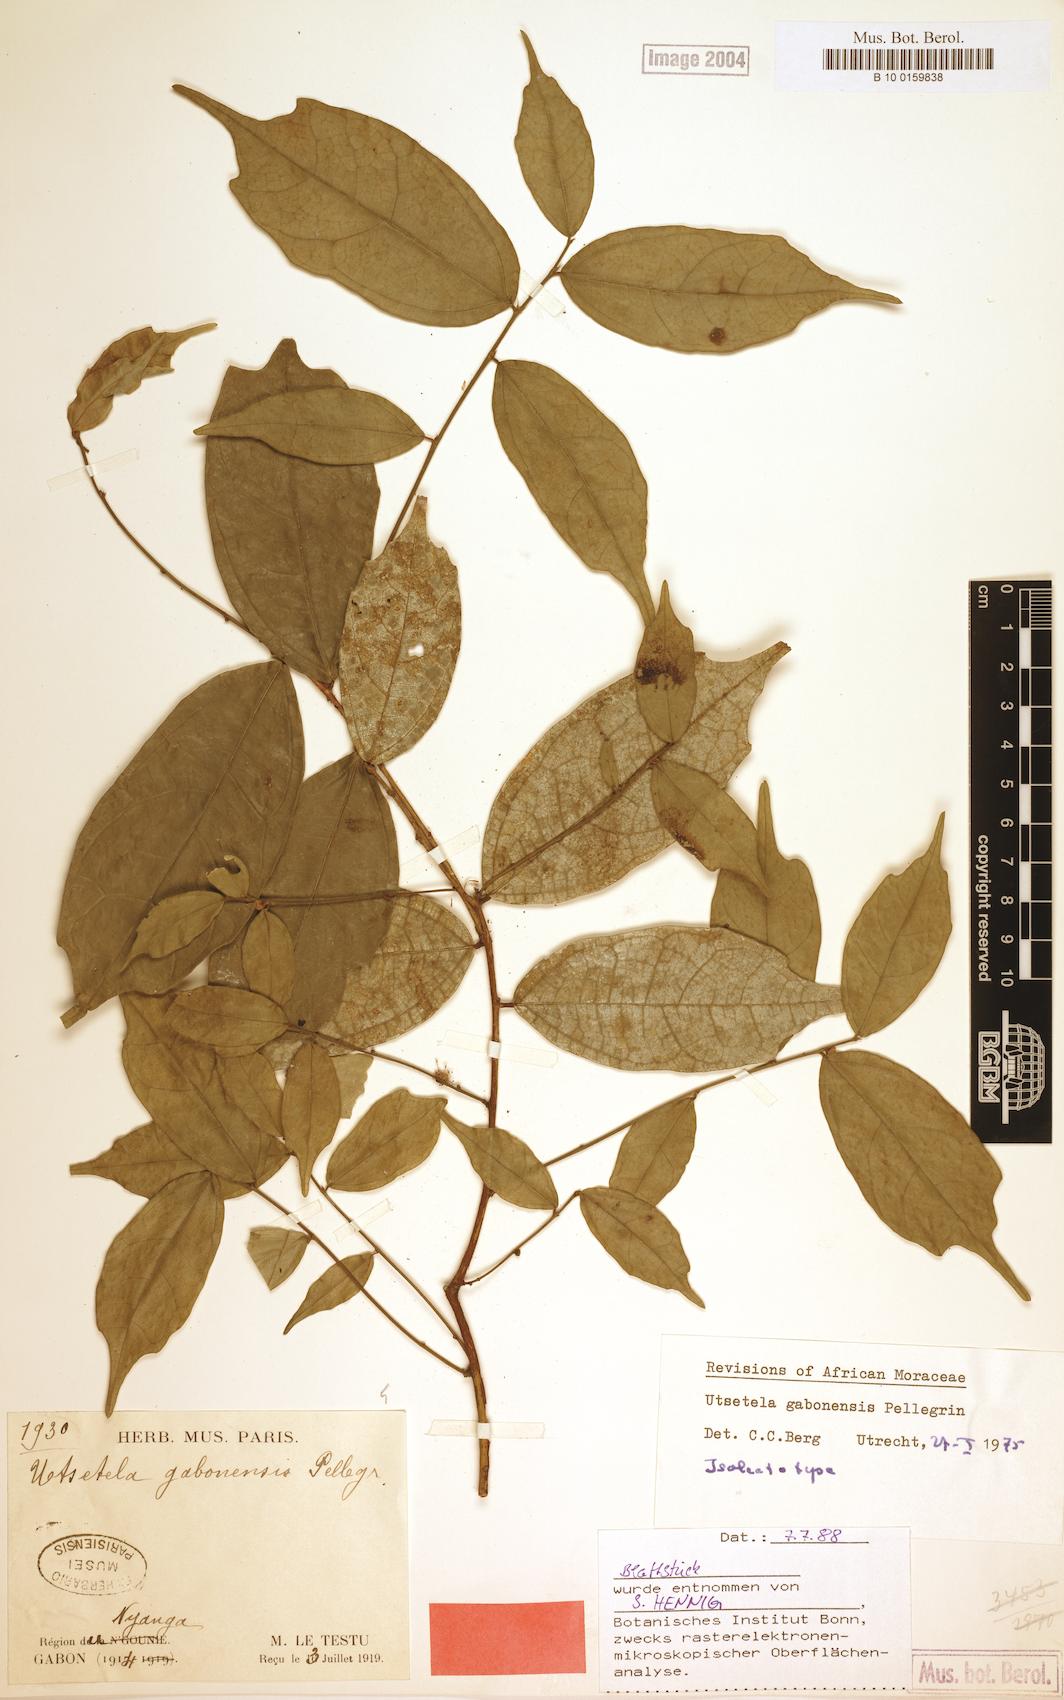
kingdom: Plantae
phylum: Tracheophyta
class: Magnoliopsida
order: Rosales
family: Moraceae
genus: Utsetela
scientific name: Utsetela gabonensis
